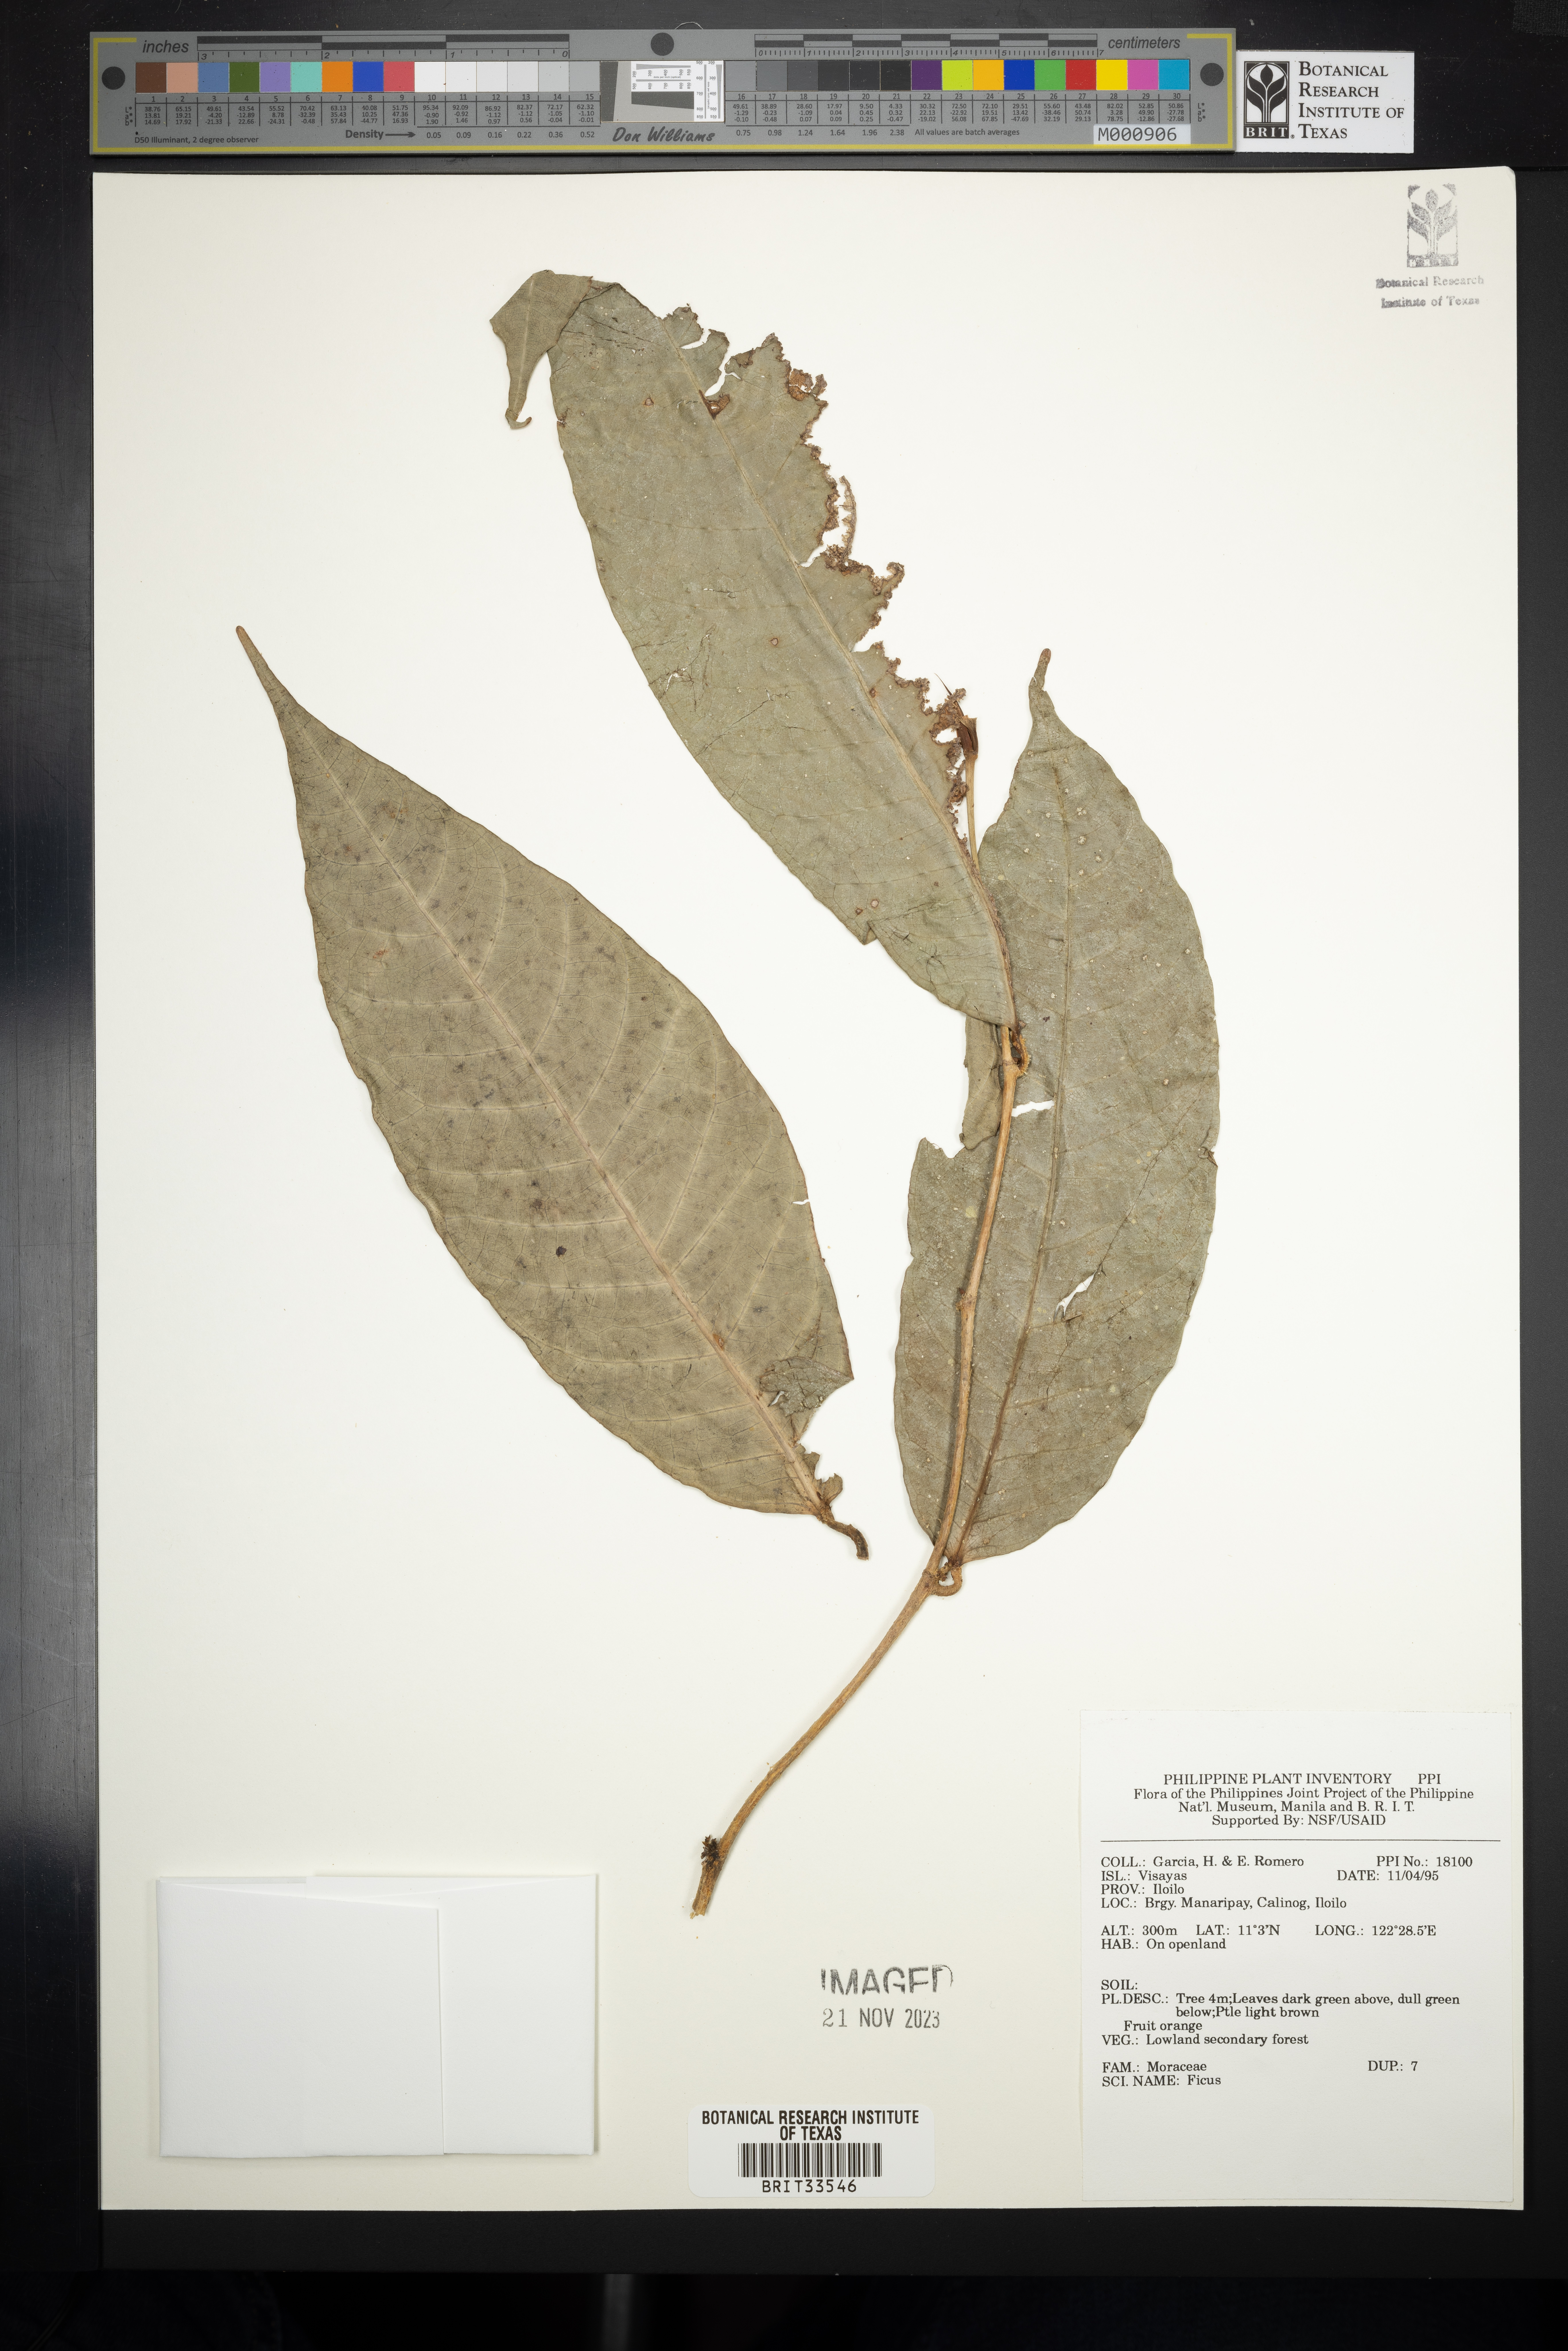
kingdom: Plantae
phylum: Tracheophyta
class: Magnoliopsida
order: Rosales
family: Moraceae
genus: Ficus
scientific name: Ficus
